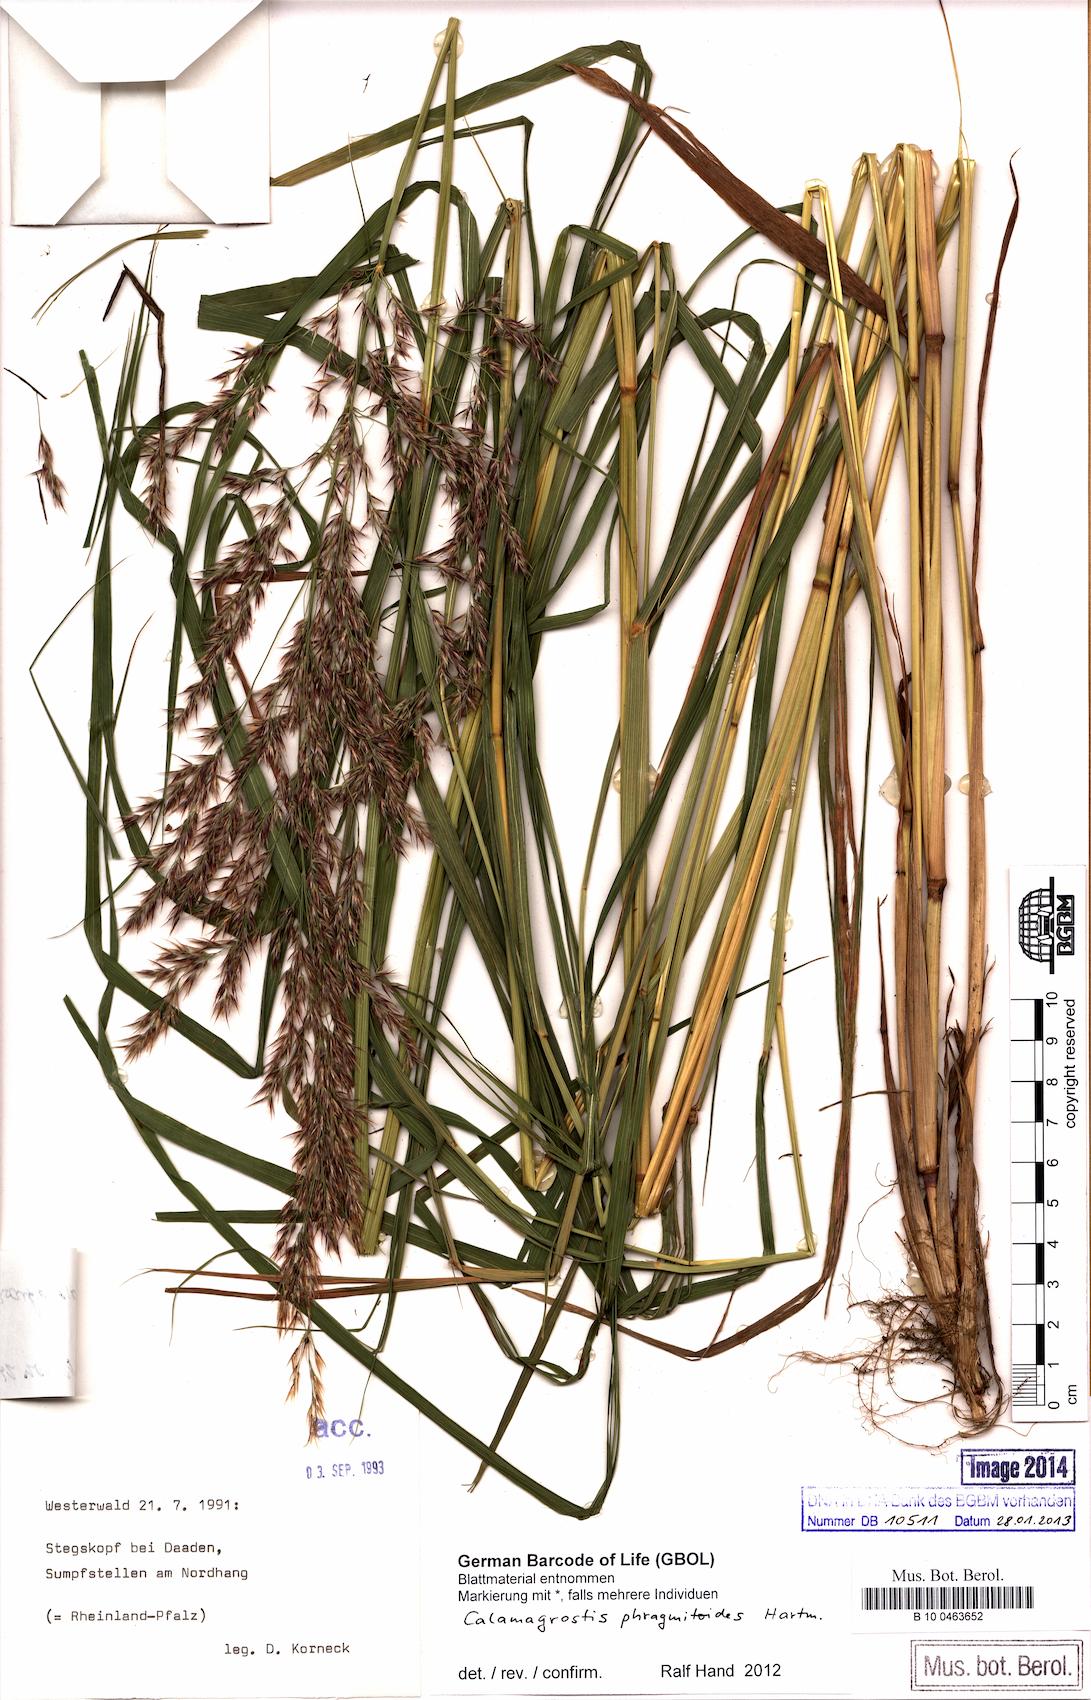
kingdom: Plantae
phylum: Tracheophyta
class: Liliopsida
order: Poales
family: Poaceae
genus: Calamagrostis
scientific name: Calamagrostis purpurea
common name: Scandinavian small-reed
